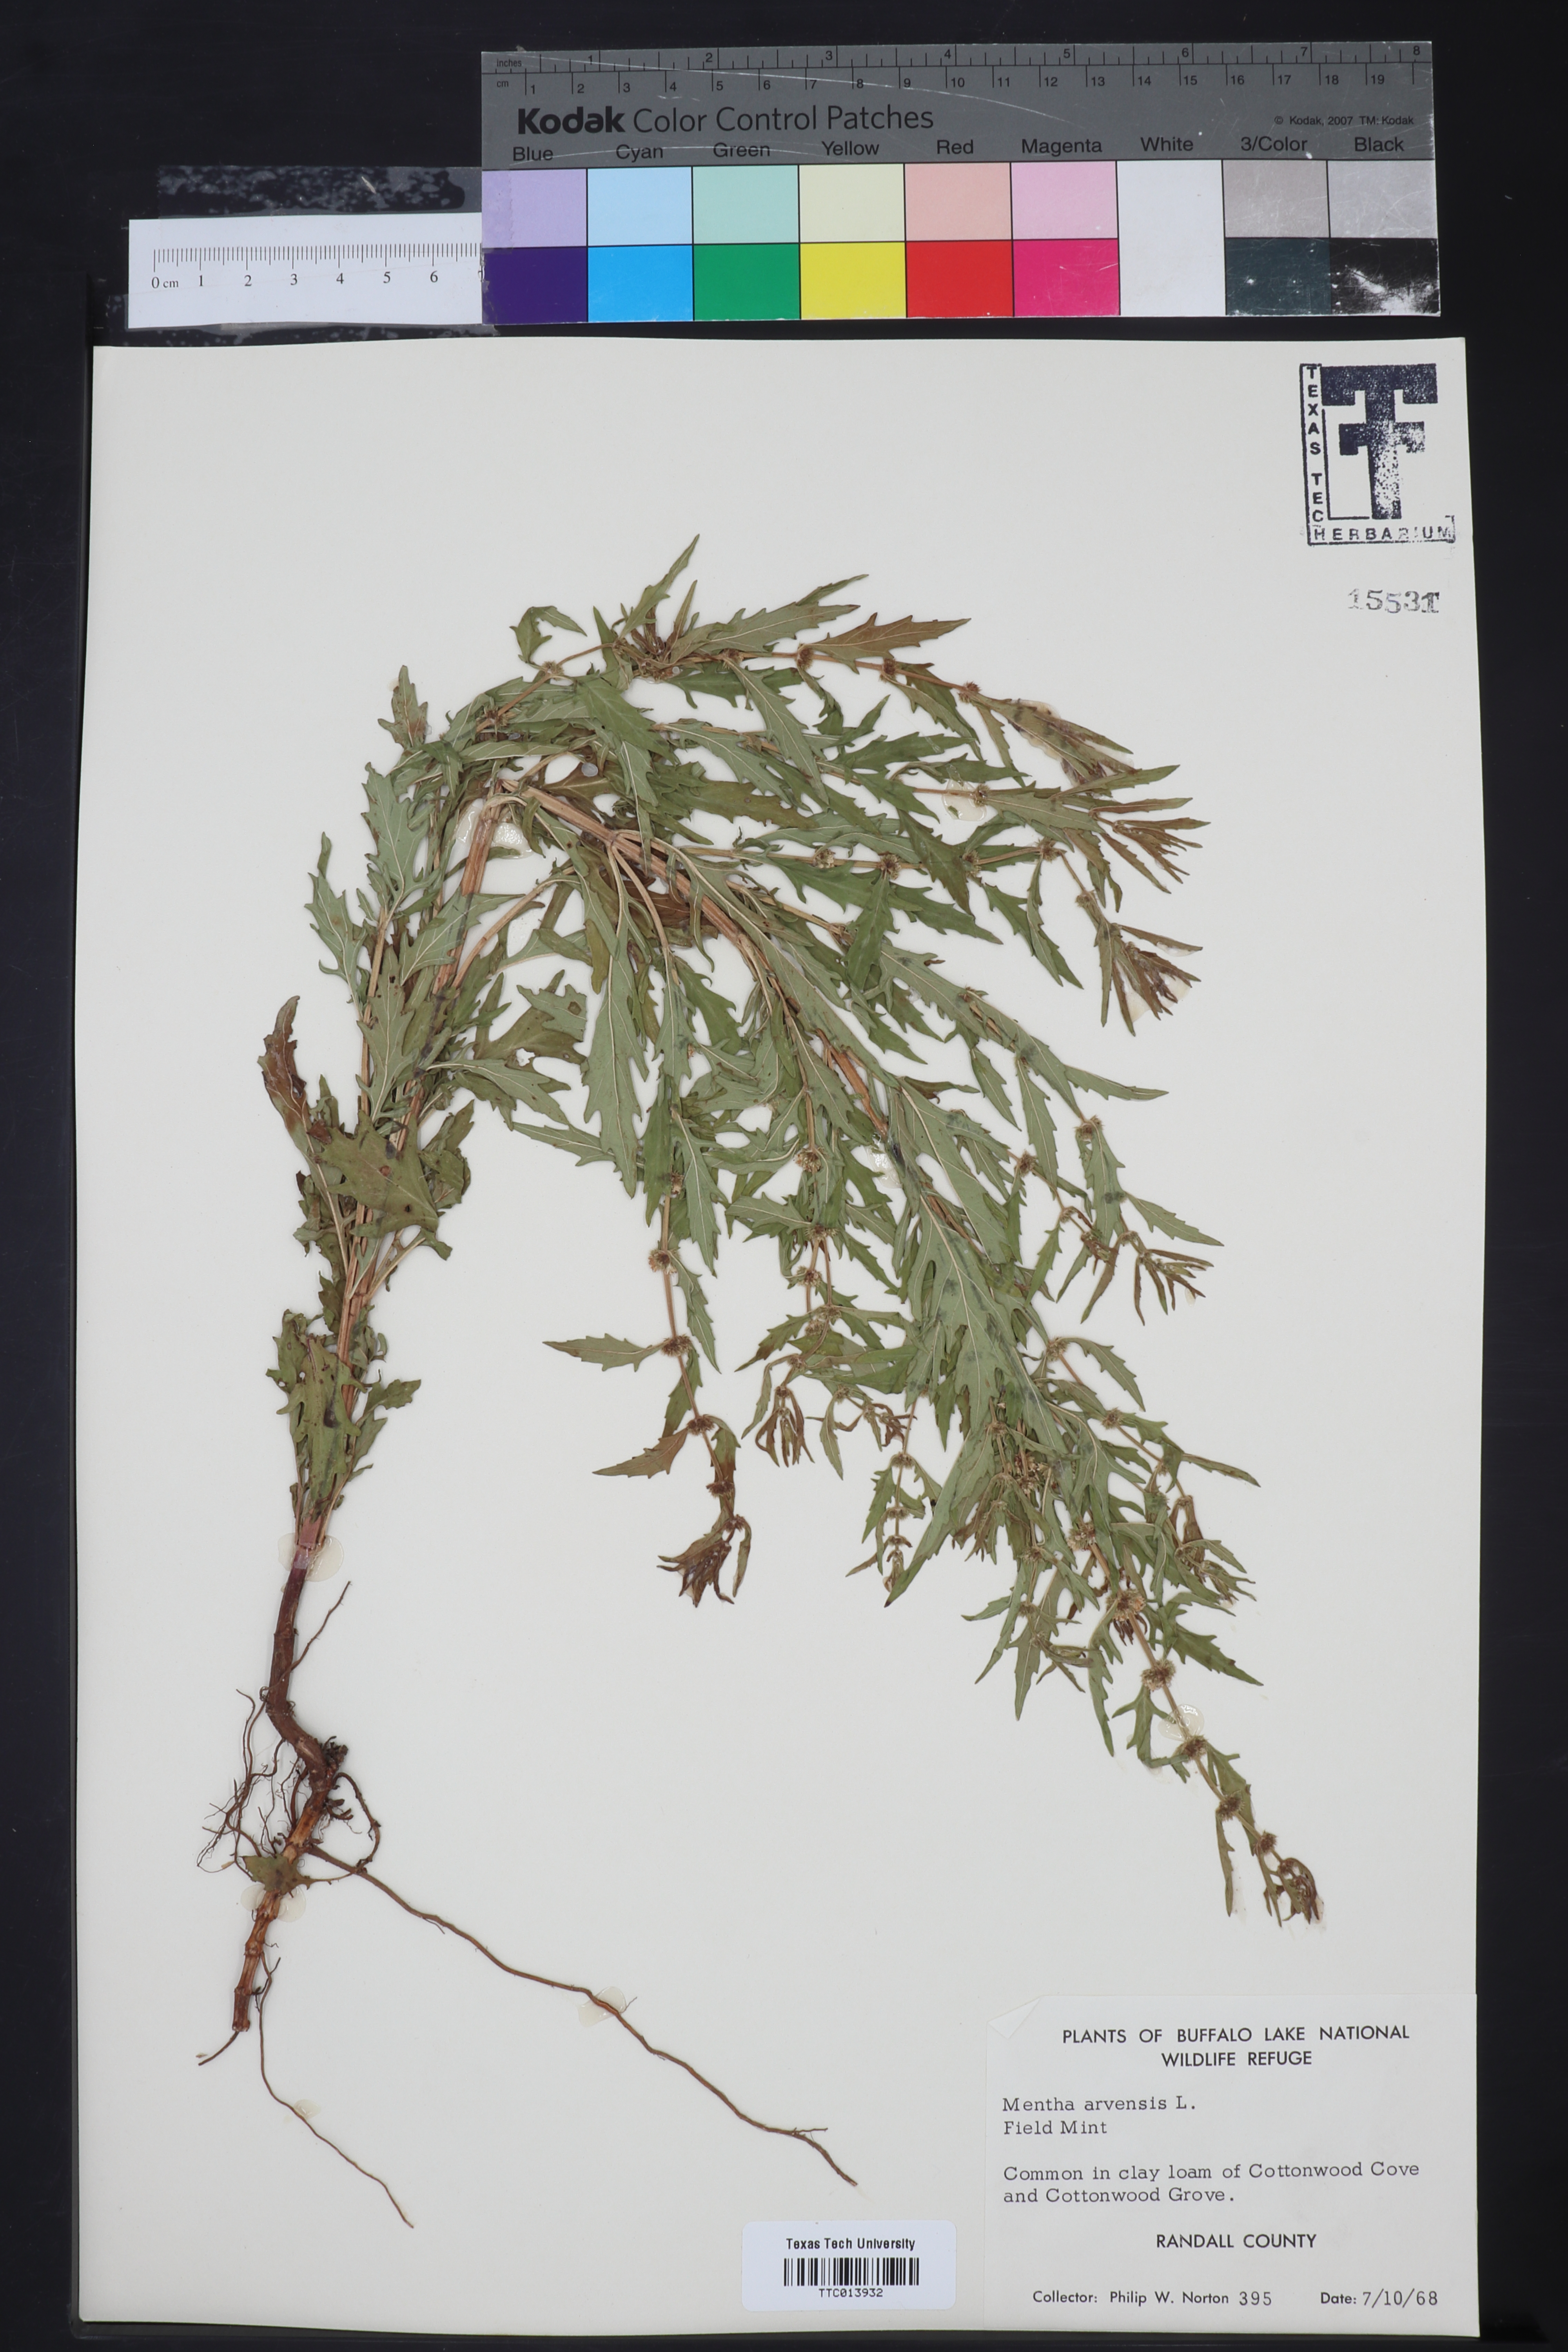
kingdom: Plantae
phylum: Tracheophyta
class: Magnoliopsida
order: Lamiales
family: Lamiaceae
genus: Mentha
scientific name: Mentha arvensis
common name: Corn mint
